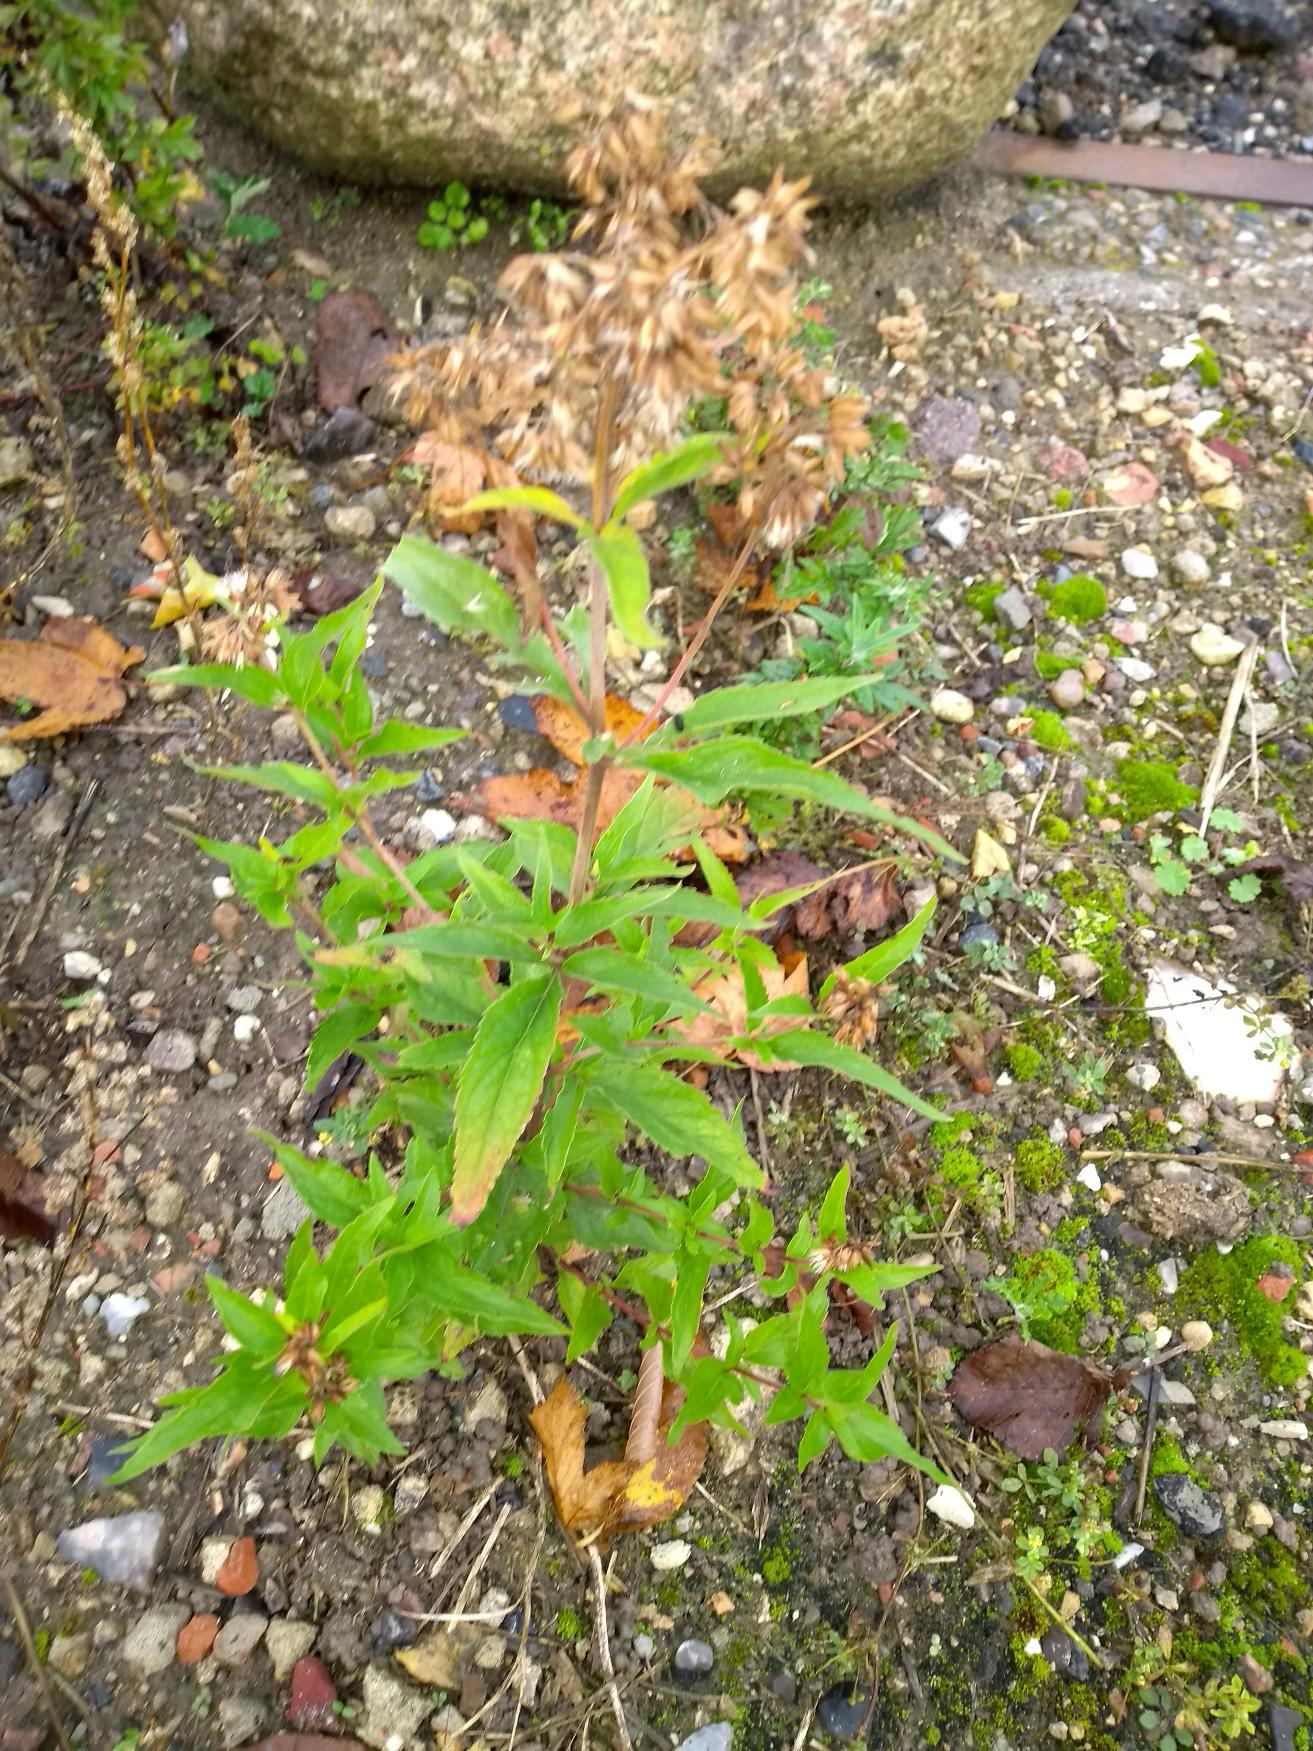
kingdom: Plantae
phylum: Tracheophyta
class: Magnoliopsida
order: Asterales
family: Asteraceae
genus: Eupatorium
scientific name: Eupatorium cannabinum
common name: Hjortetrøst
